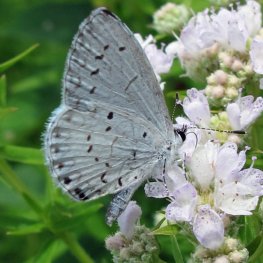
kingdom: Animalia
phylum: Arthropoda
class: Insecta
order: Lepidoptera
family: Lycaenidae
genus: Cyaniris
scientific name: Cyaniris neglecta
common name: Summer Azure
